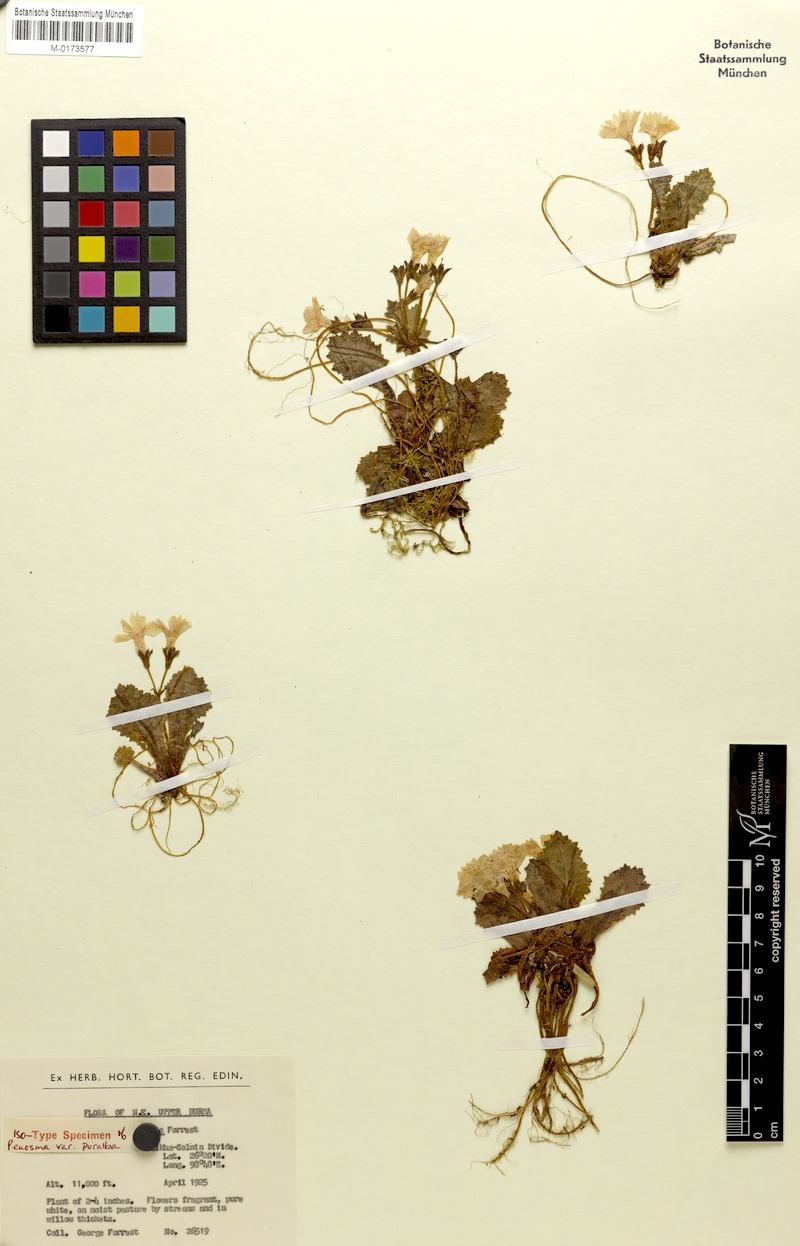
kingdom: Plantae
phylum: Tracheophyta
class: Magnoliopsida
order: Ericales
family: Primulaceae
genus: Primula
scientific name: Primula euosma
